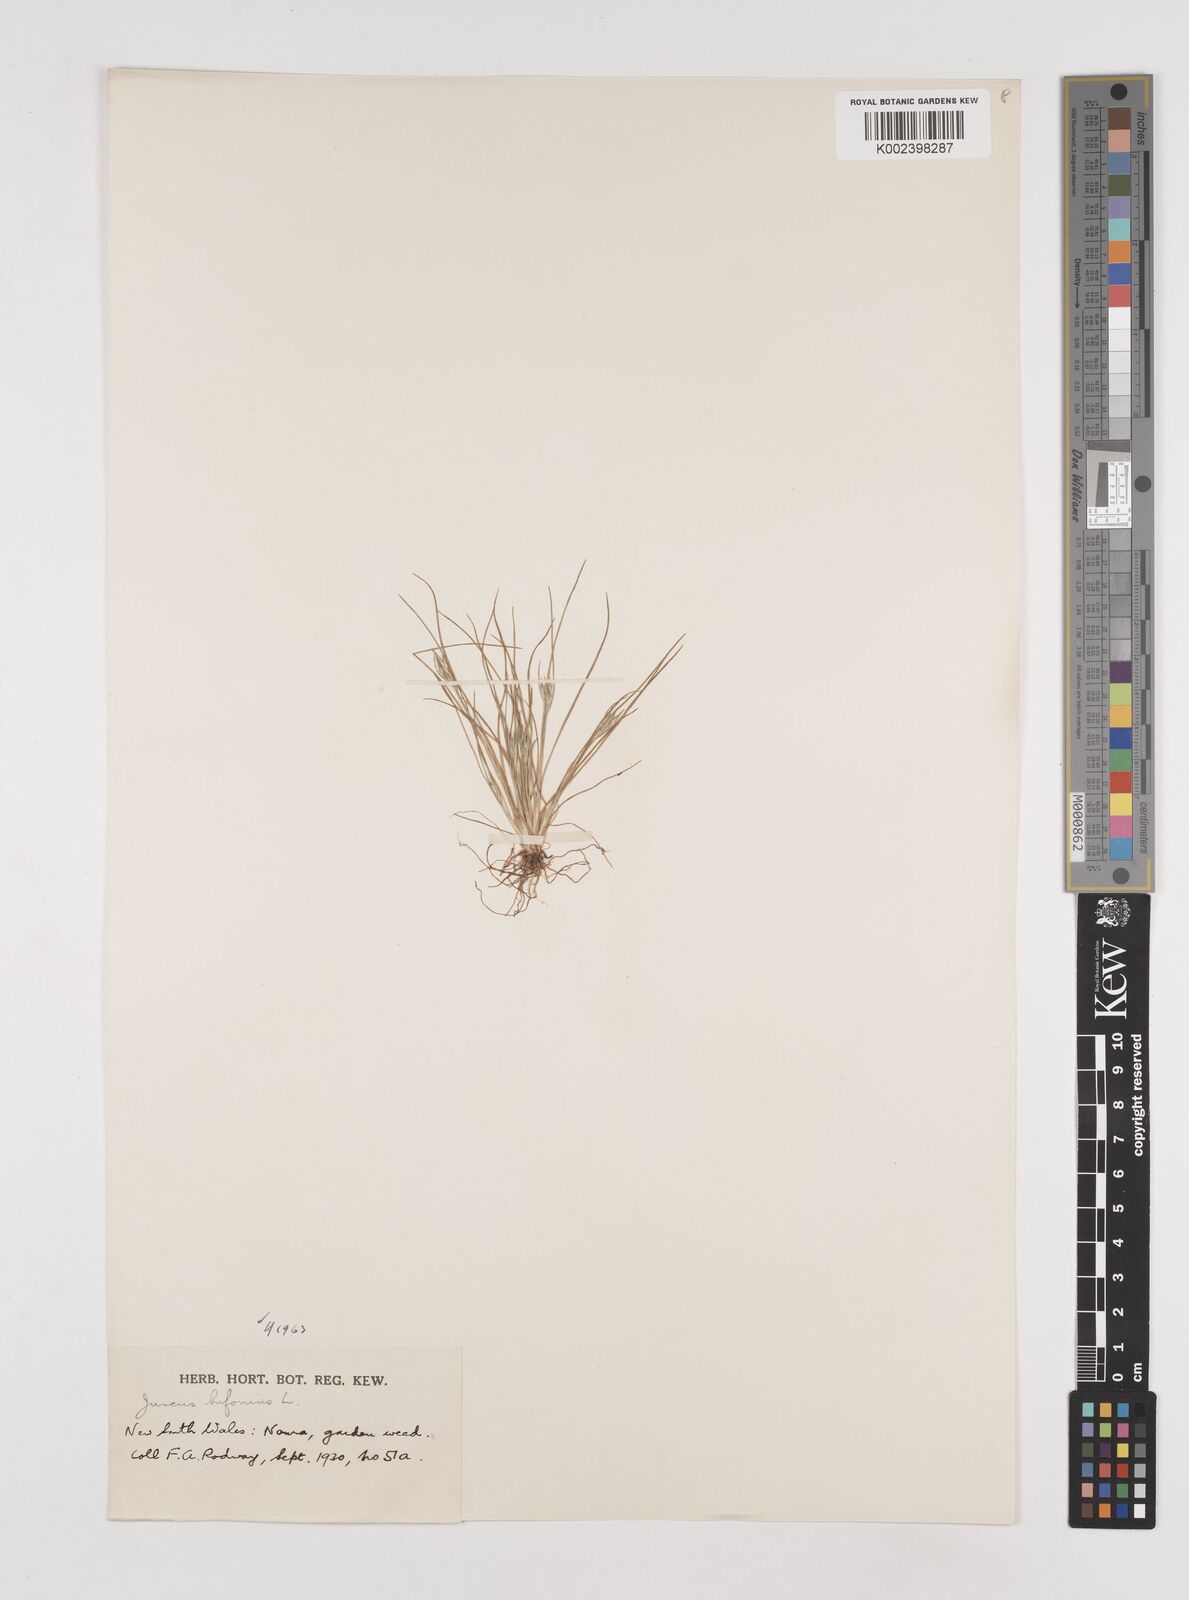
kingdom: Plantae
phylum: Tracheophyta
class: Liliopsida
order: Poales
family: Juncaceae
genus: Juncus
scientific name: Juncus ranarius
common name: Frog rush
